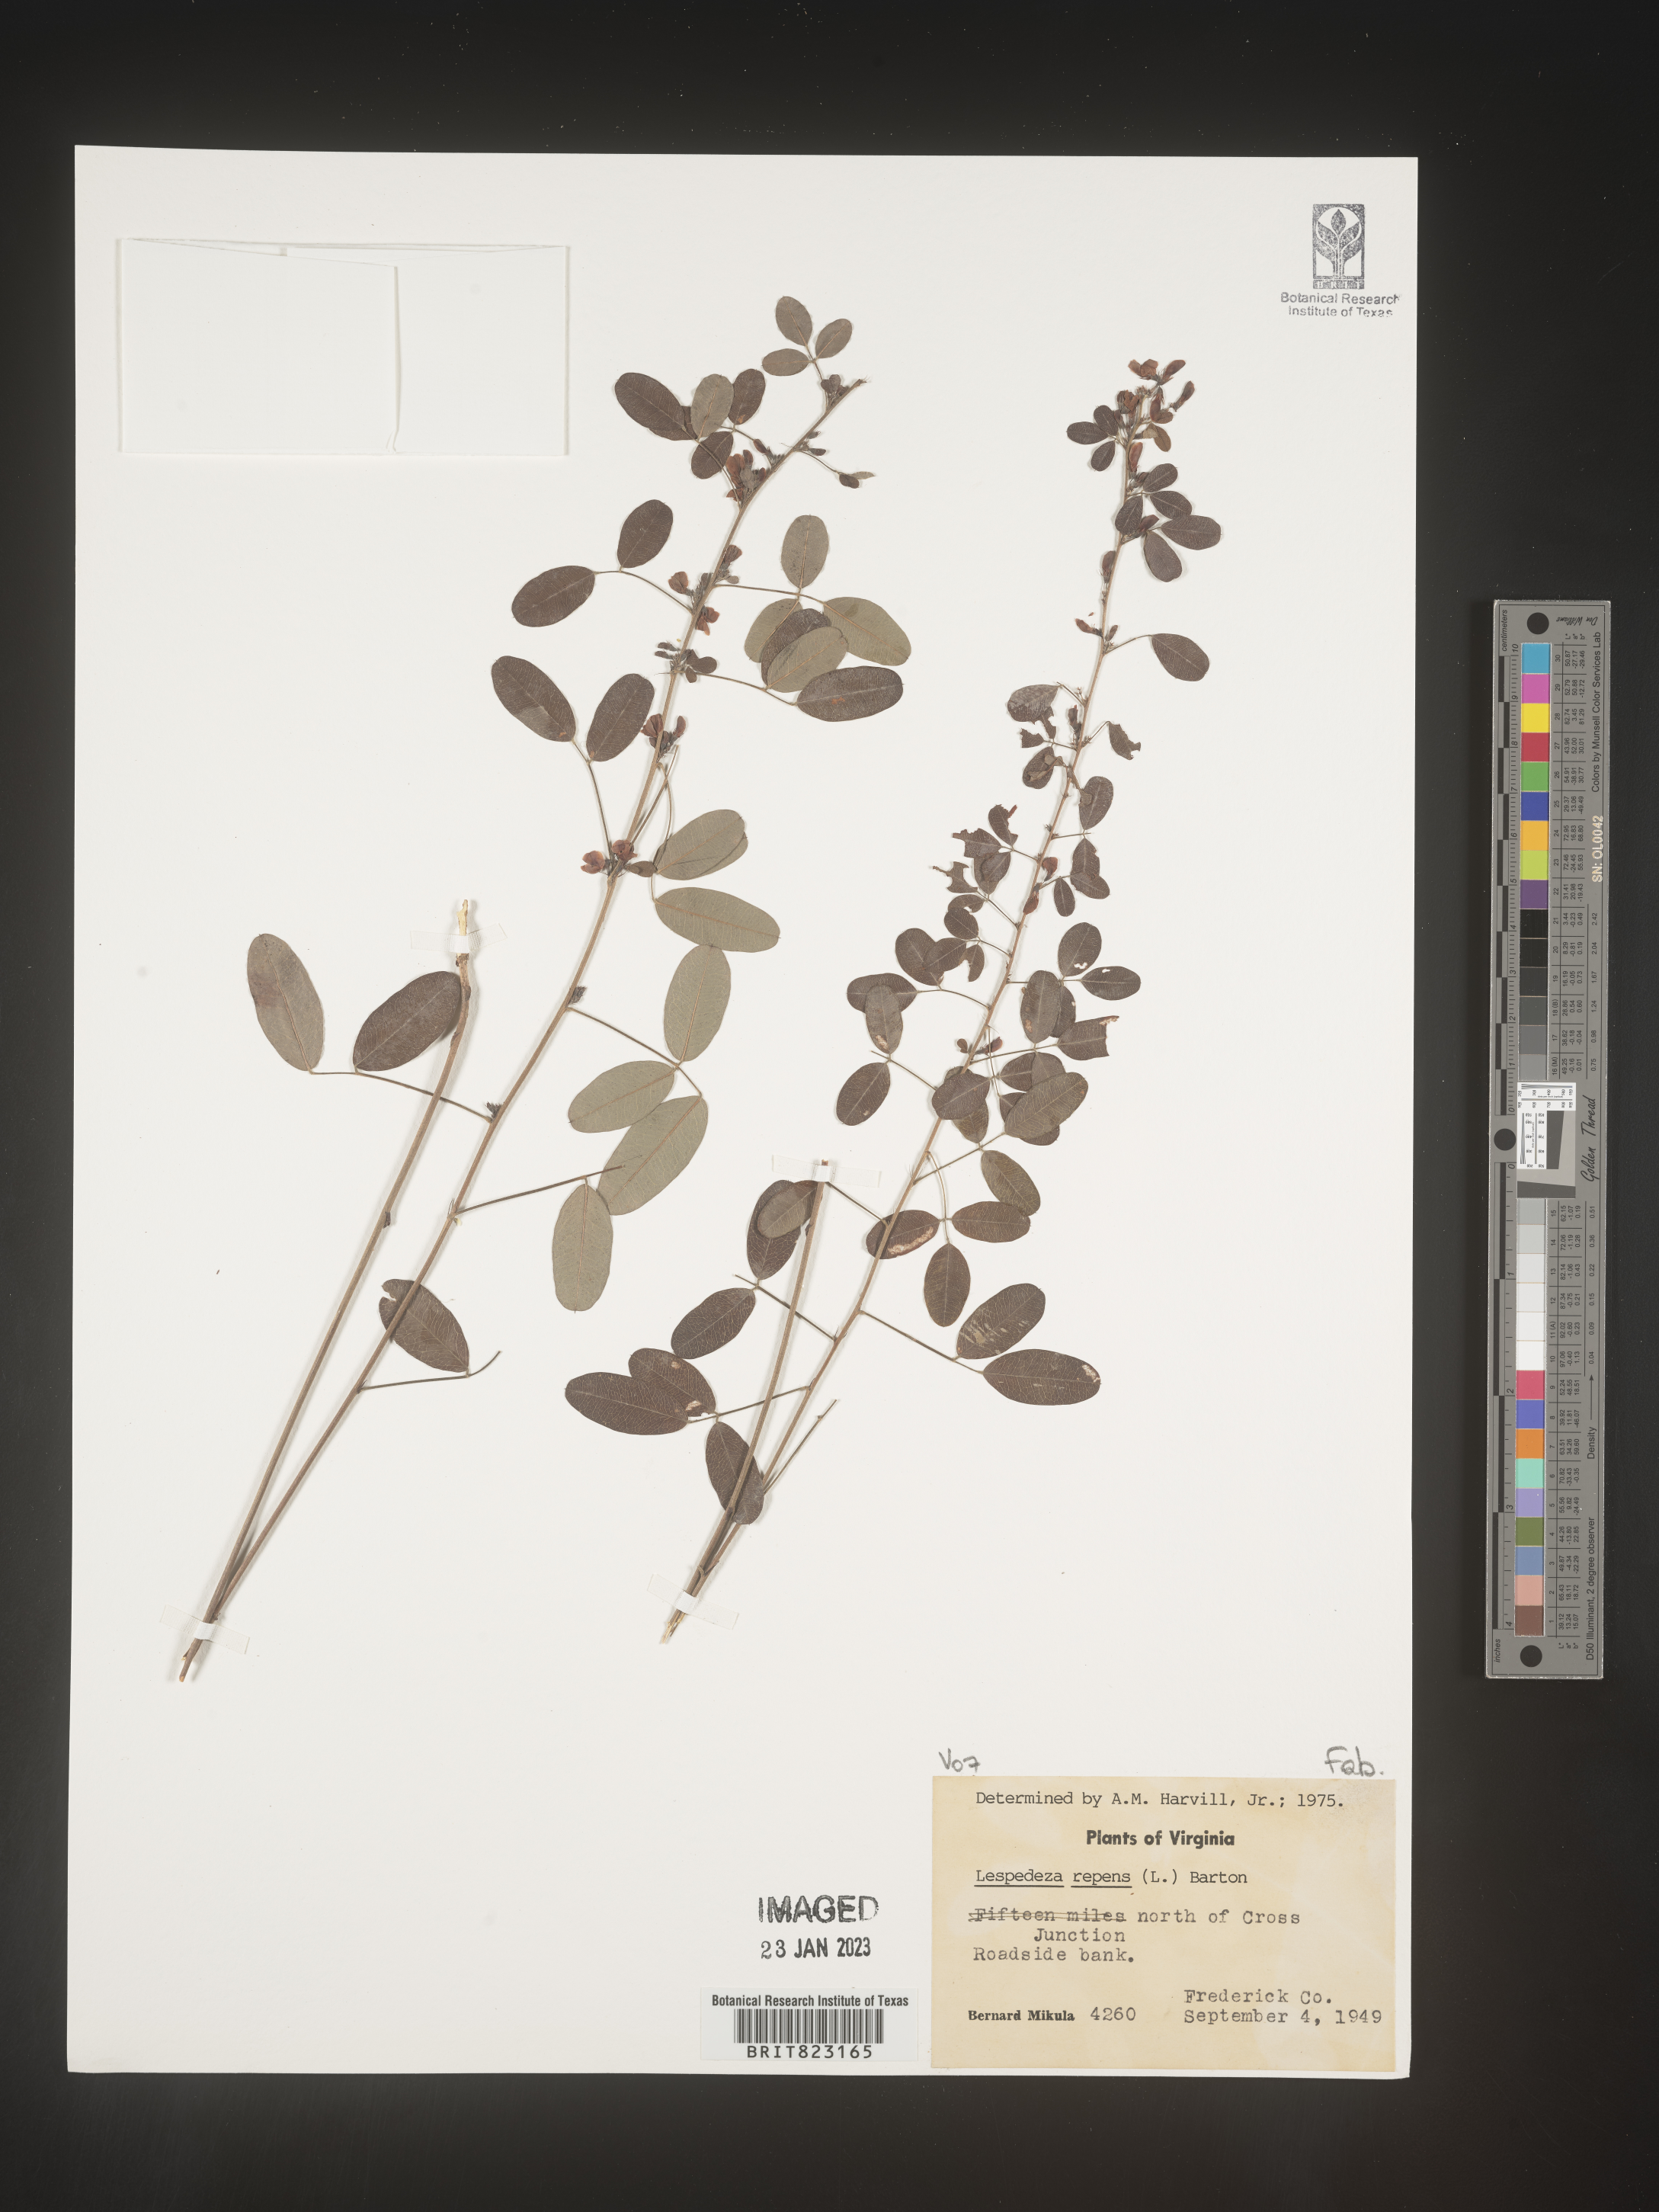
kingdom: Plantae
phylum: Tracheophyta
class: Magnoliopsida
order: Fabales
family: Fabaceae
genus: Lespedeza
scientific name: Lespedeza repens
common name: Creeping bush-clover
